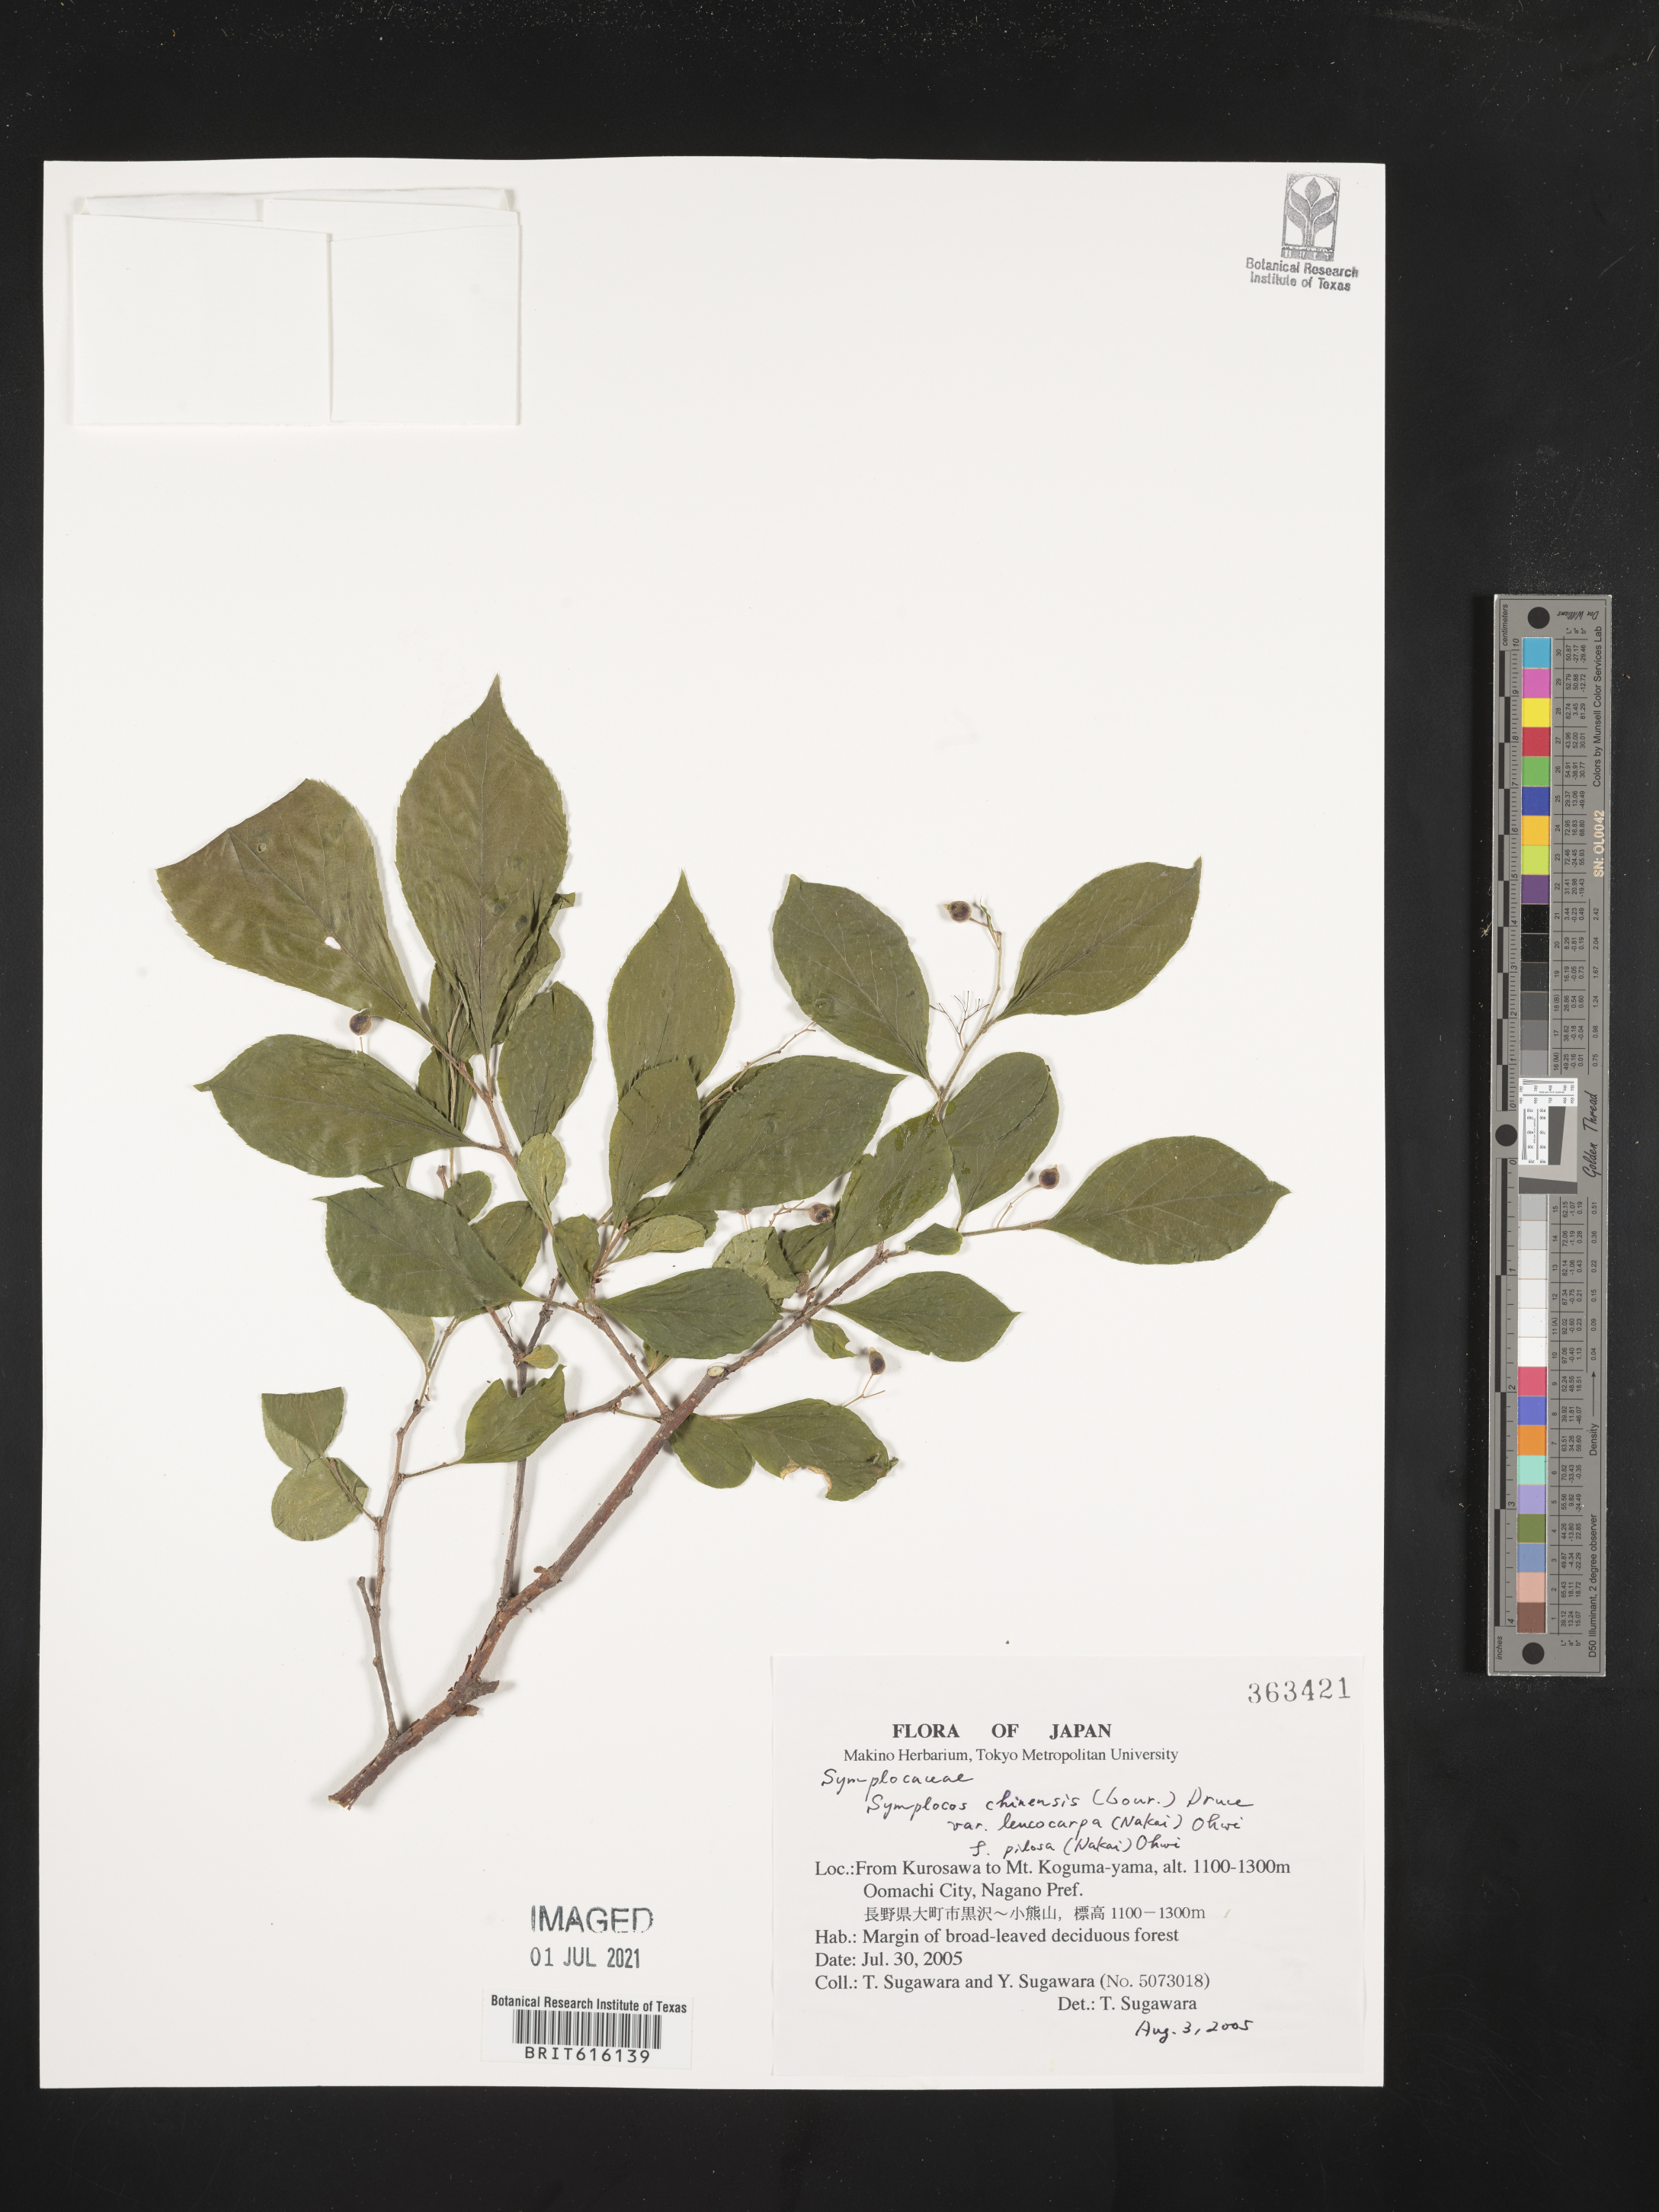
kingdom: Plantae
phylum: Tracheophyta
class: Magnoliopsida
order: Ericales
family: Symplocaceae
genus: Symplocos
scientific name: Symplocos sawafutagi
